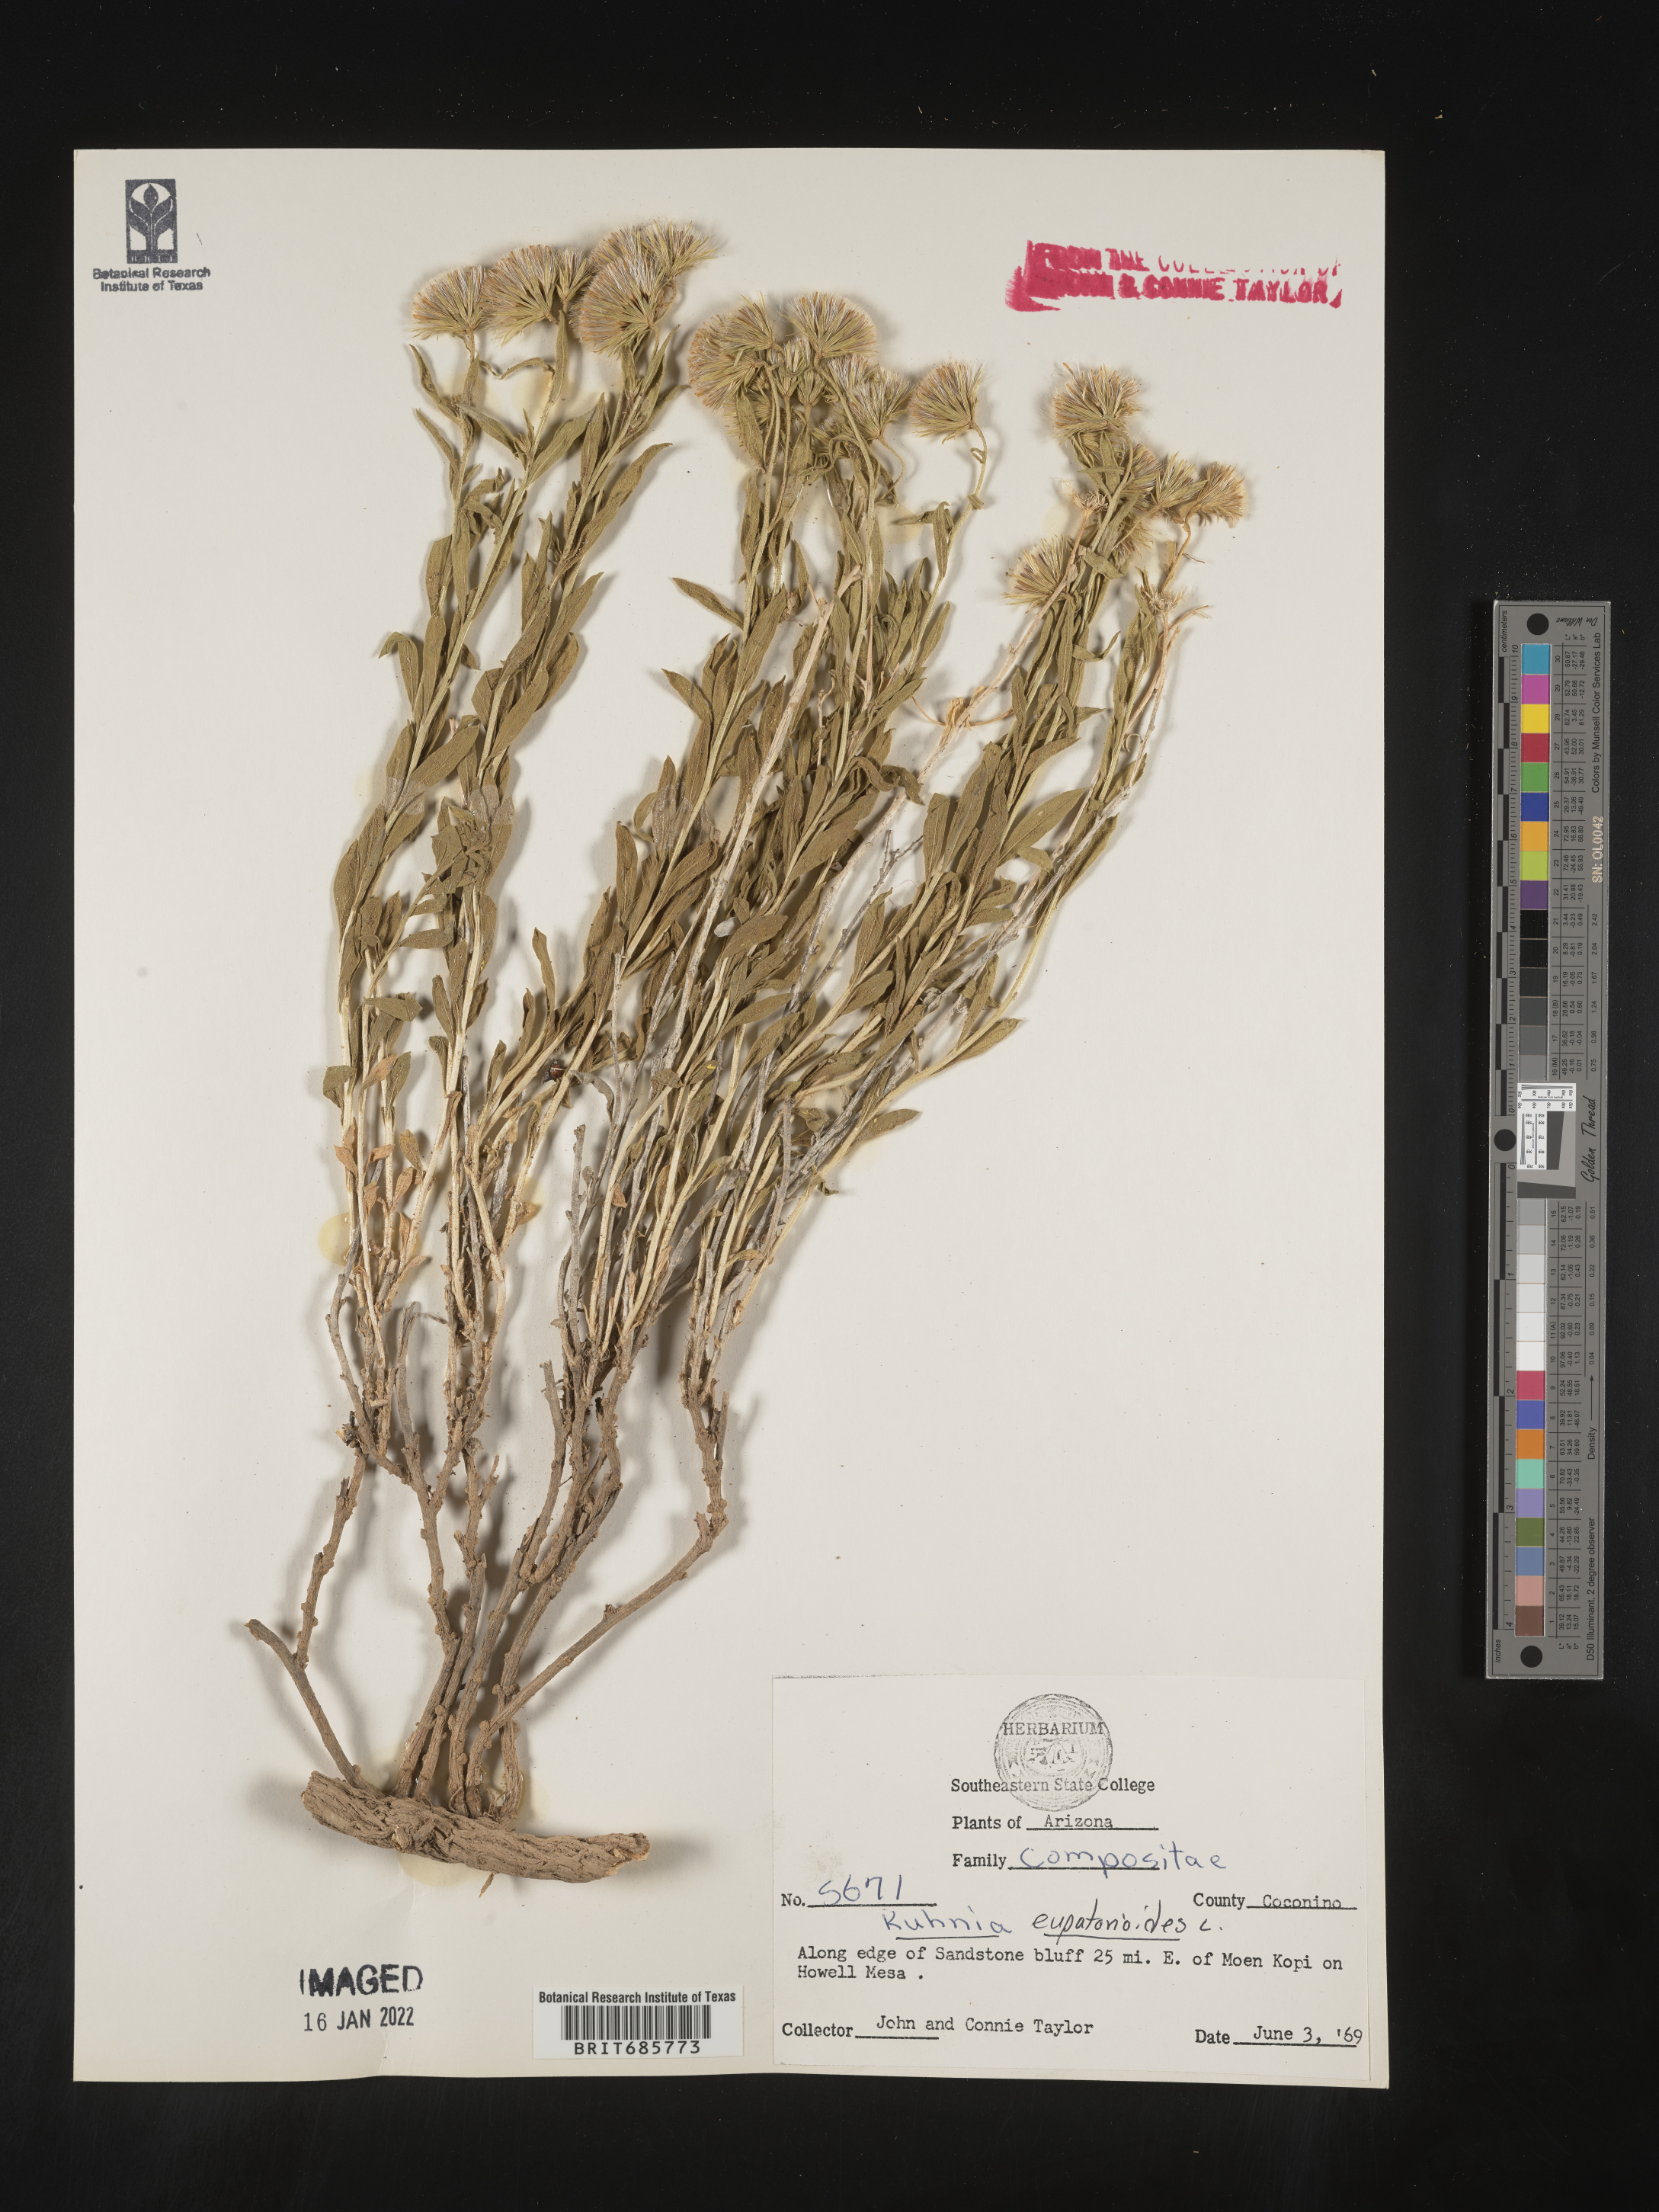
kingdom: Plantae
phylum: Tracheophyta
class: Magnoliopsida
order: Asterales
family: Asteraceae
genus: Brickellia
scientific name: Brickellia eupatorioides
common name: False boneset
